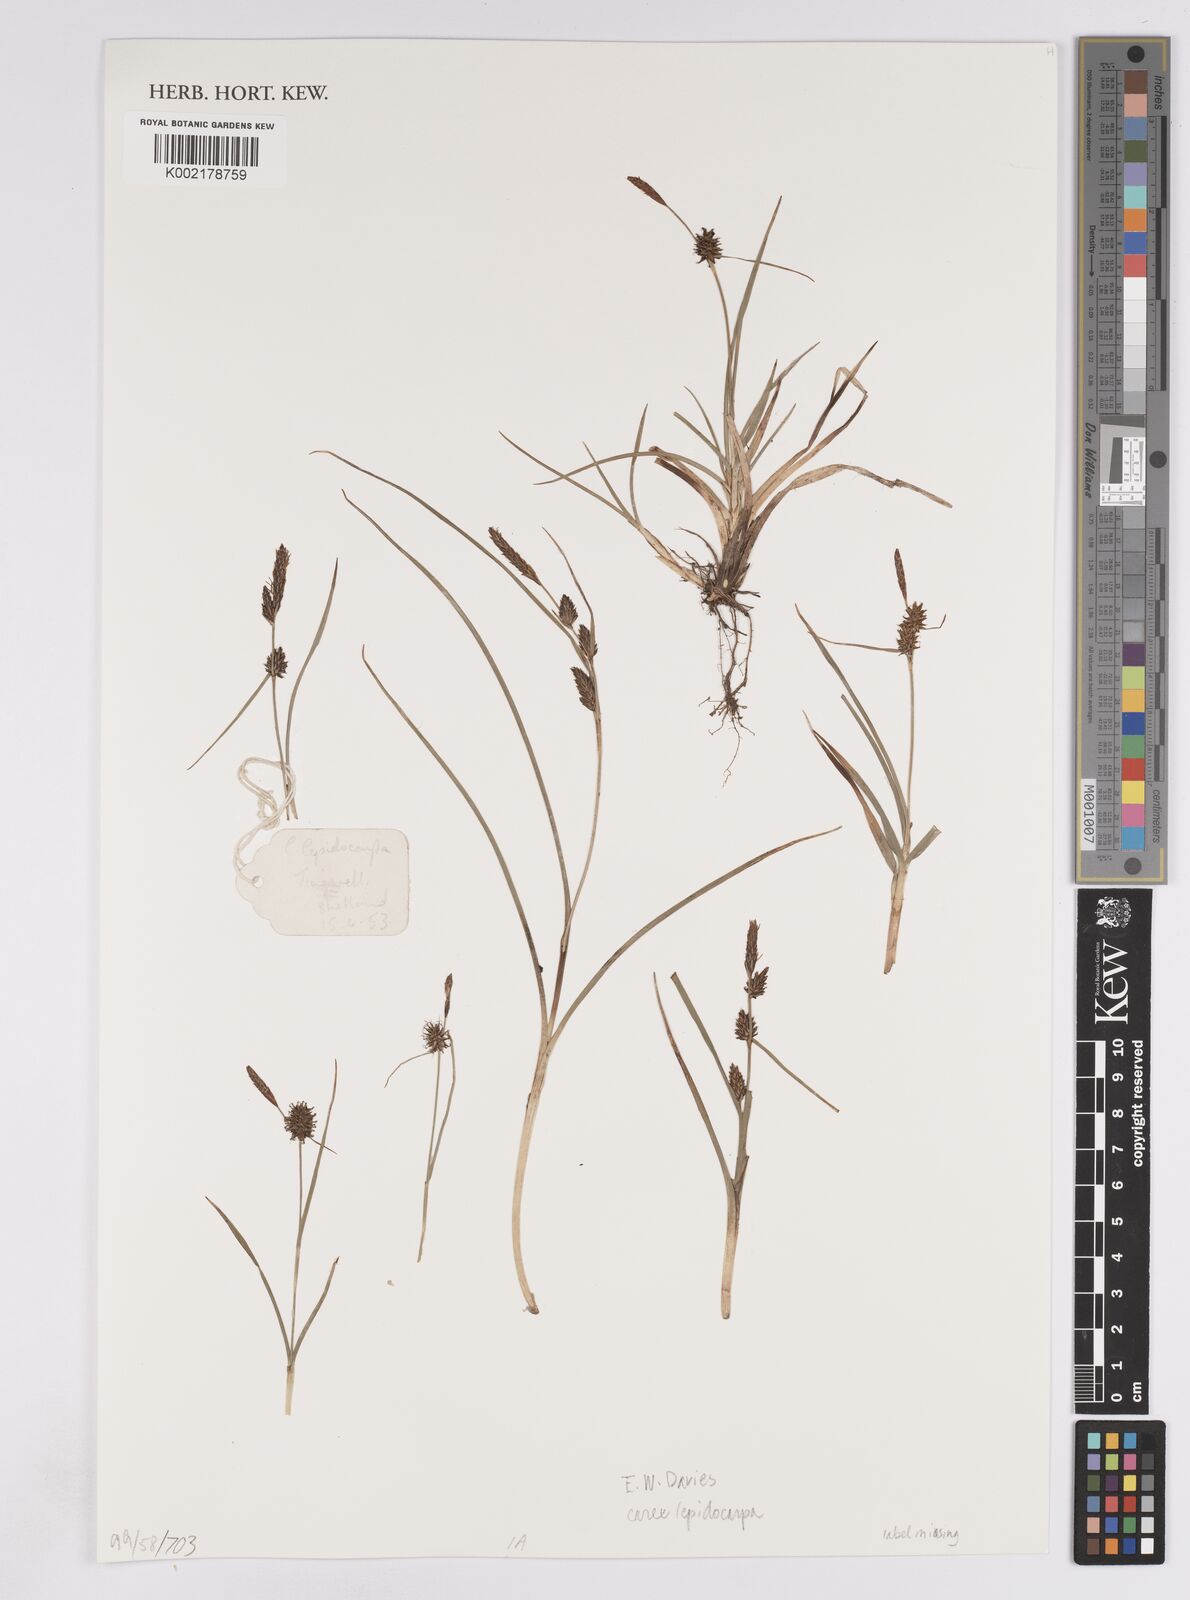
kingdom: Plantae
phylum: Tracheophyta
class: Liliopsida
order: Poales
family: Cyperaceae
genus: Carex
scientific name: Carex lepidocarpa
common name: Long-stalked yellow-sedge
